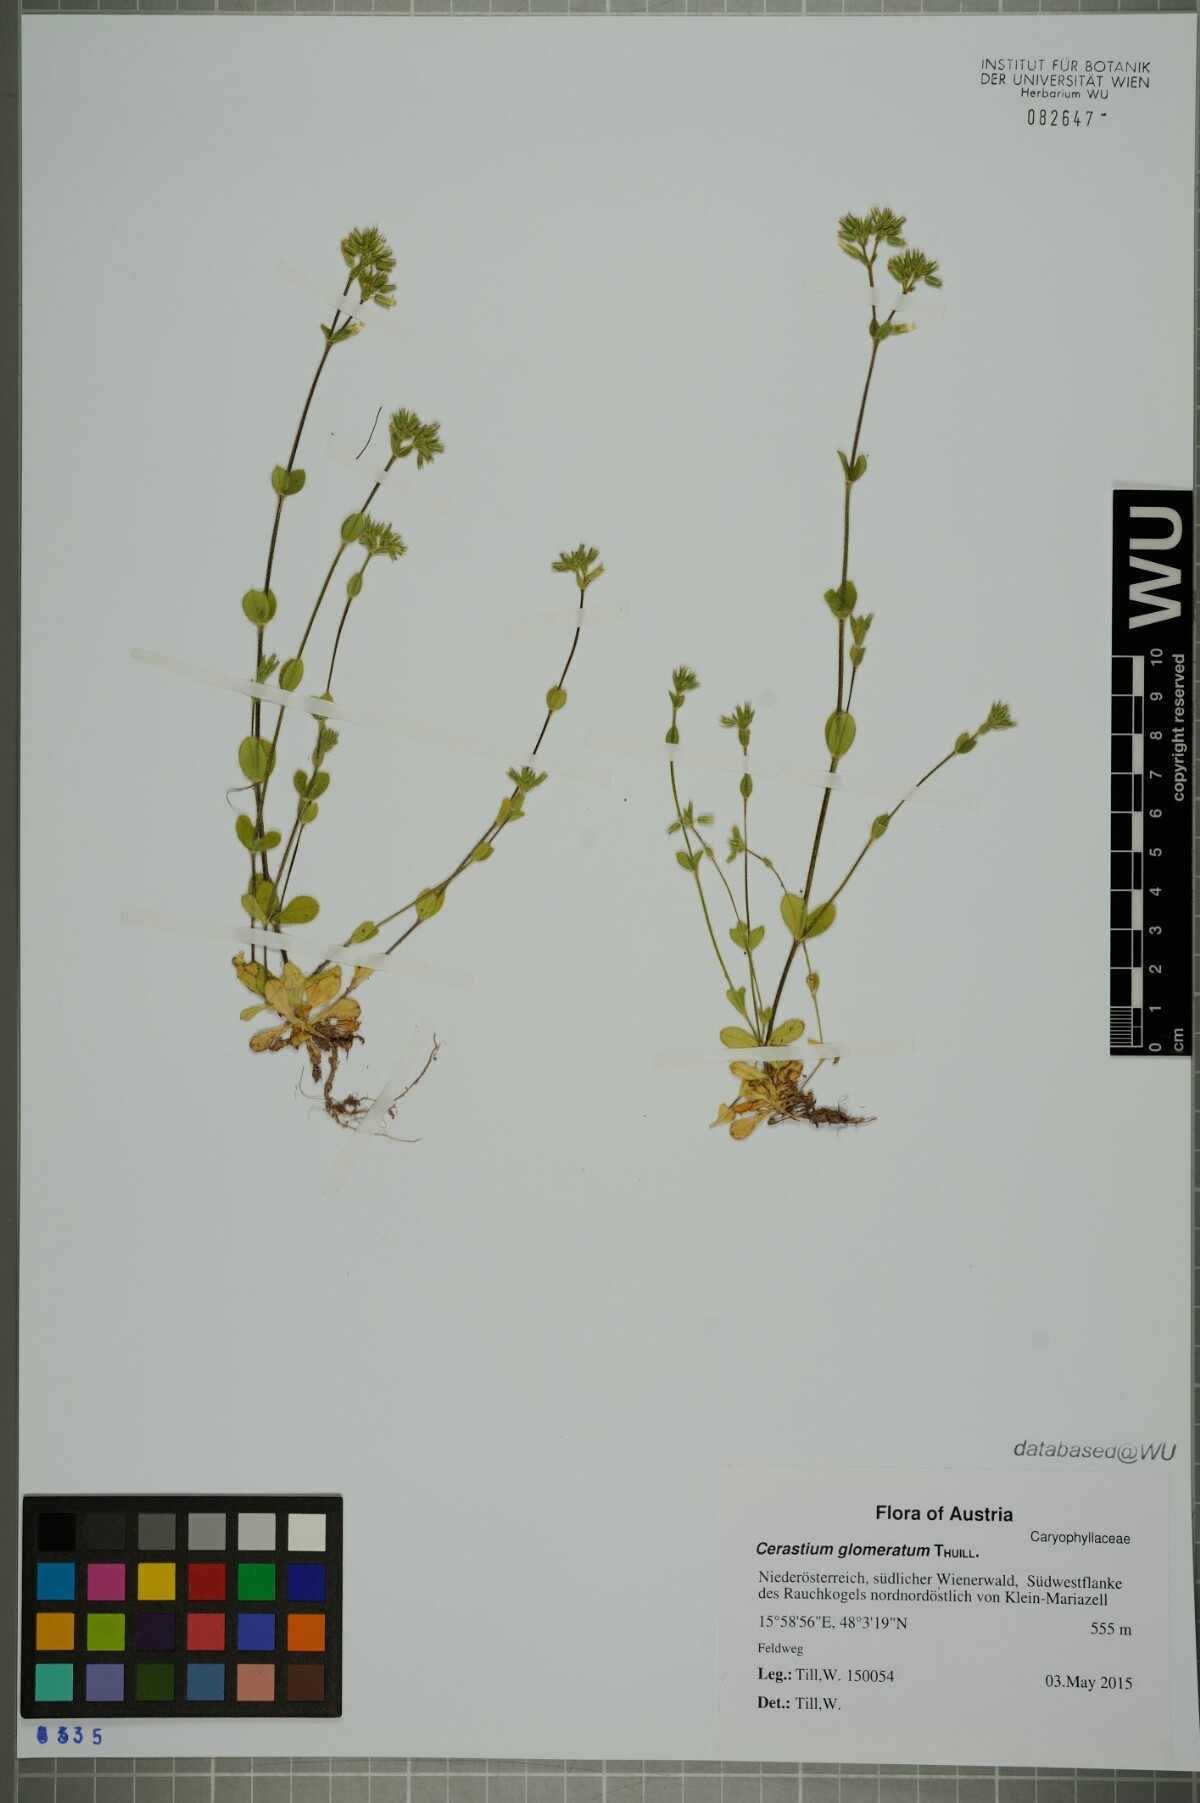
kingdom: Plantae
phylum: Tracheophyta
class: Magnoliopsida
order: Caryophyllales
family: Caryophyllaceae
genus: Cerastium
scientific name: Cerastium glomeratum
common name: Sticky chickweed
